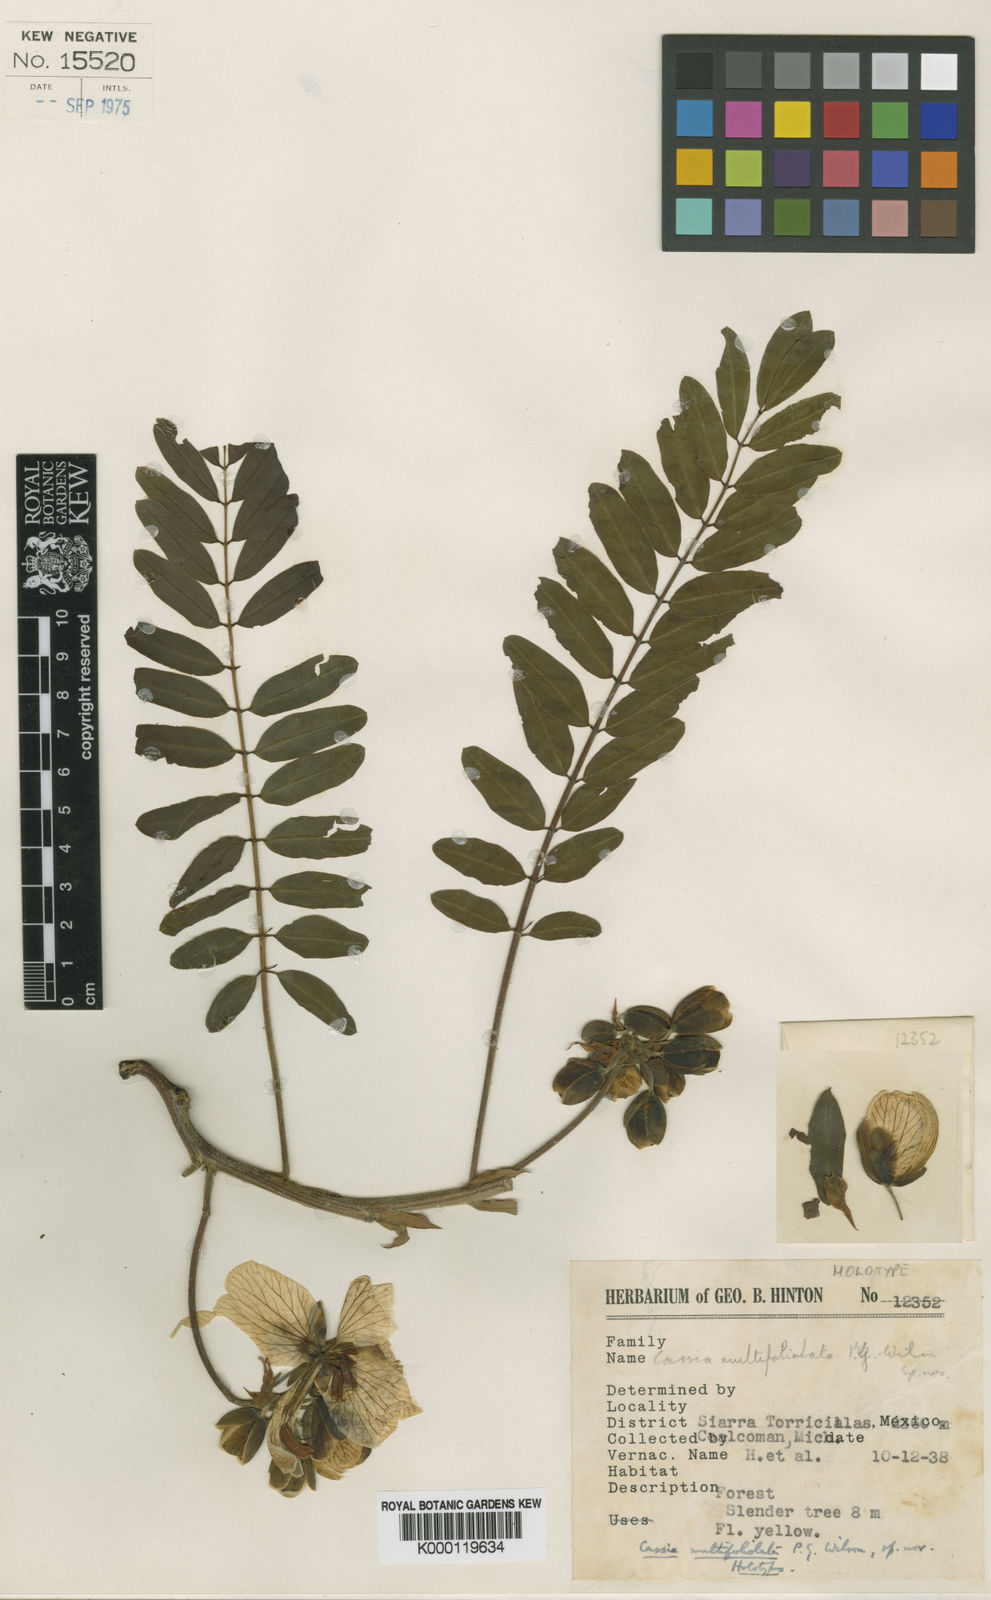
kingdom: Plantae
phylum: Tracheophyta
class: Magnoliopsida
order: Fabales
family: Fabaceae
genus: Senna
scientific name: Senna multifoliolata
